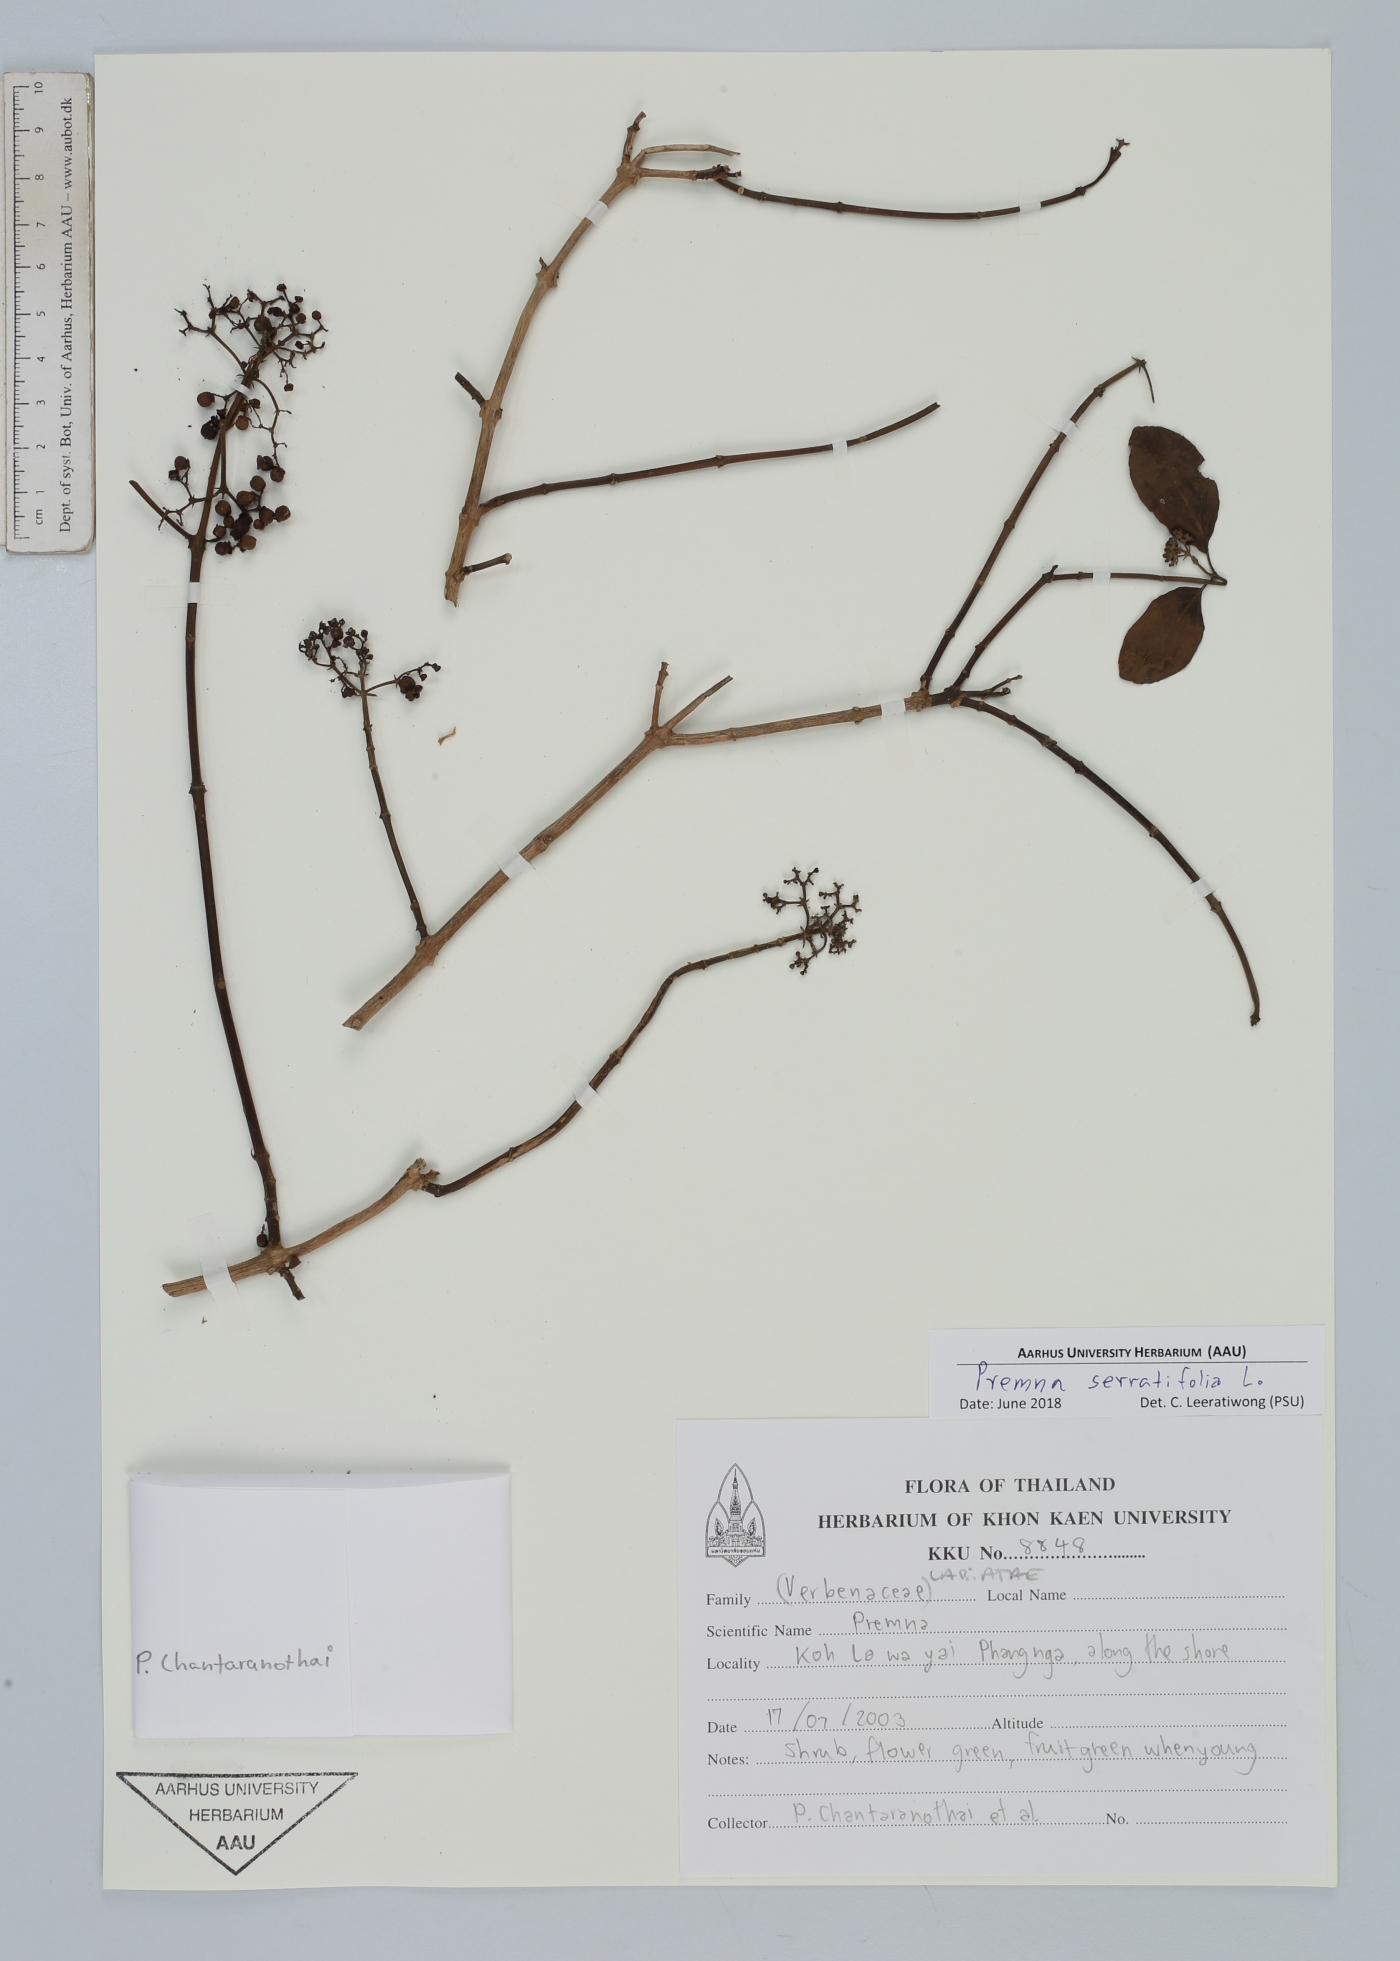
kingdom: Plantae
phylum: Tracheophyta
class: Magnoliopsida
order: Lamiales
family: Lamiaceae
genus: Premna
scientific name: Premna serratifolia
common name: Bastard guelder
